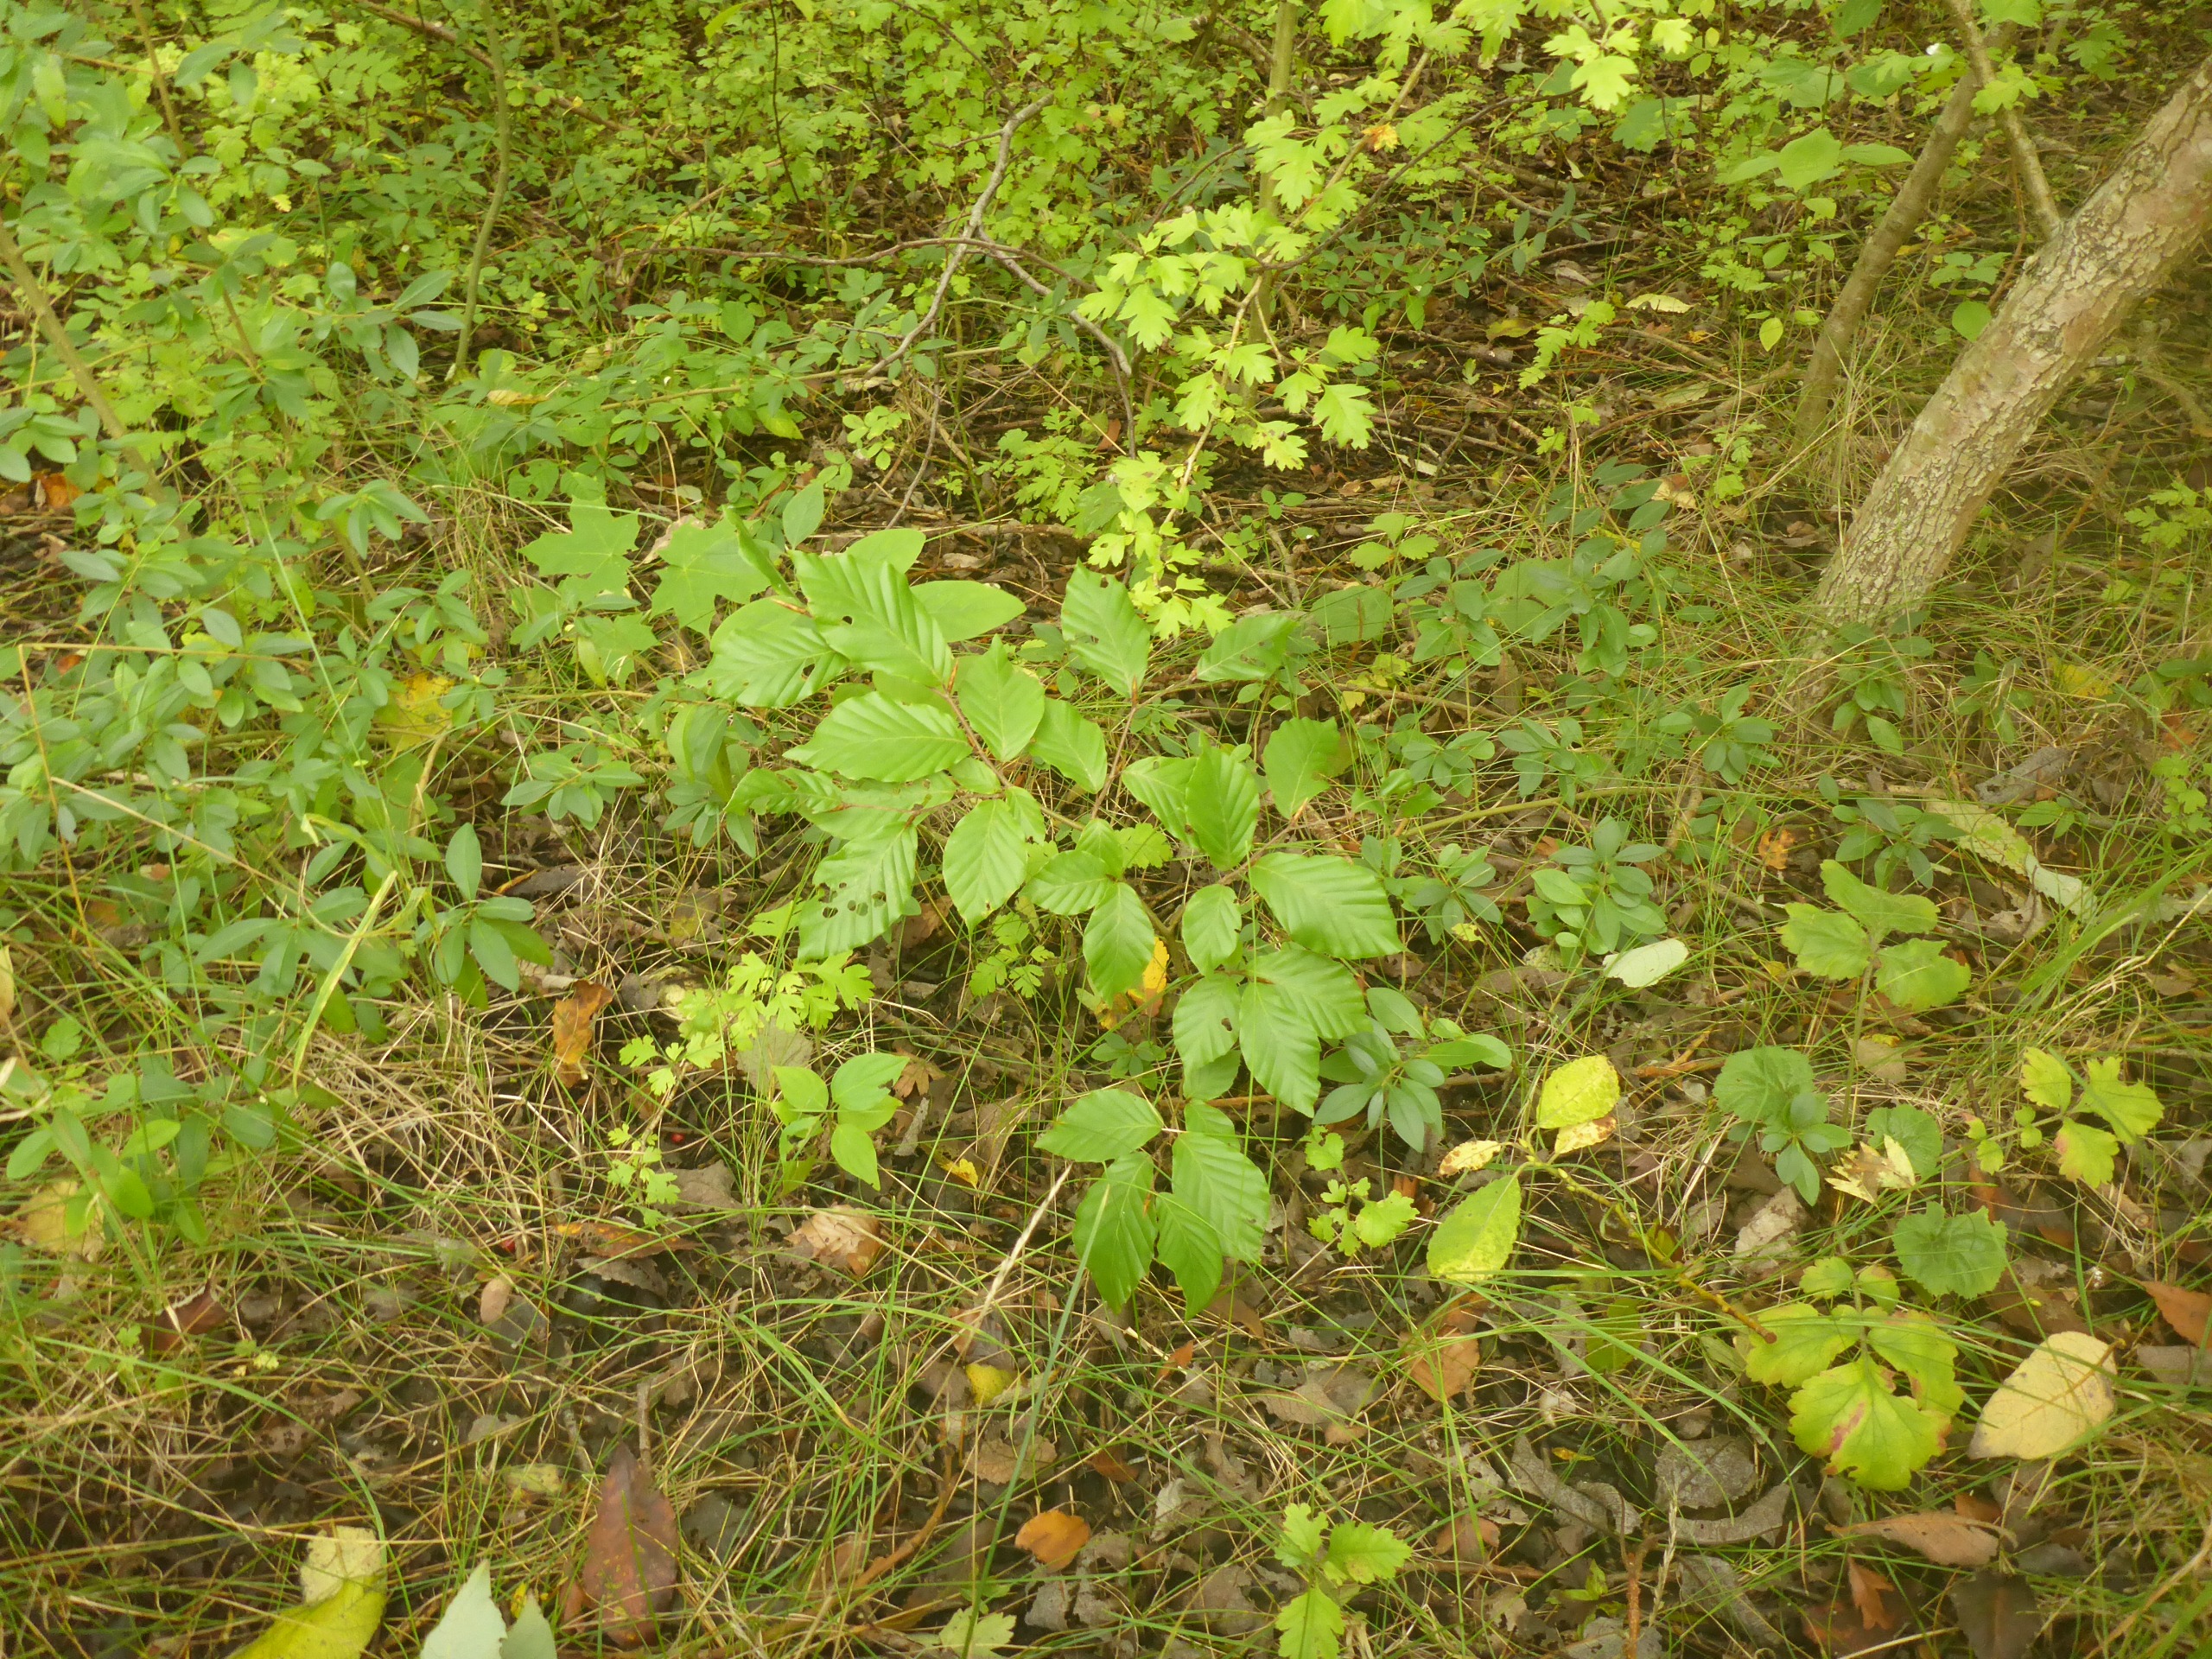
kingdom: Plantae
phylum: Tracheophyta
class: Magnoliopsida
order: Fagales
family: Fagaceae
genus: Fagus
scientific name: Fagus sylvatica
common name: Bøg
